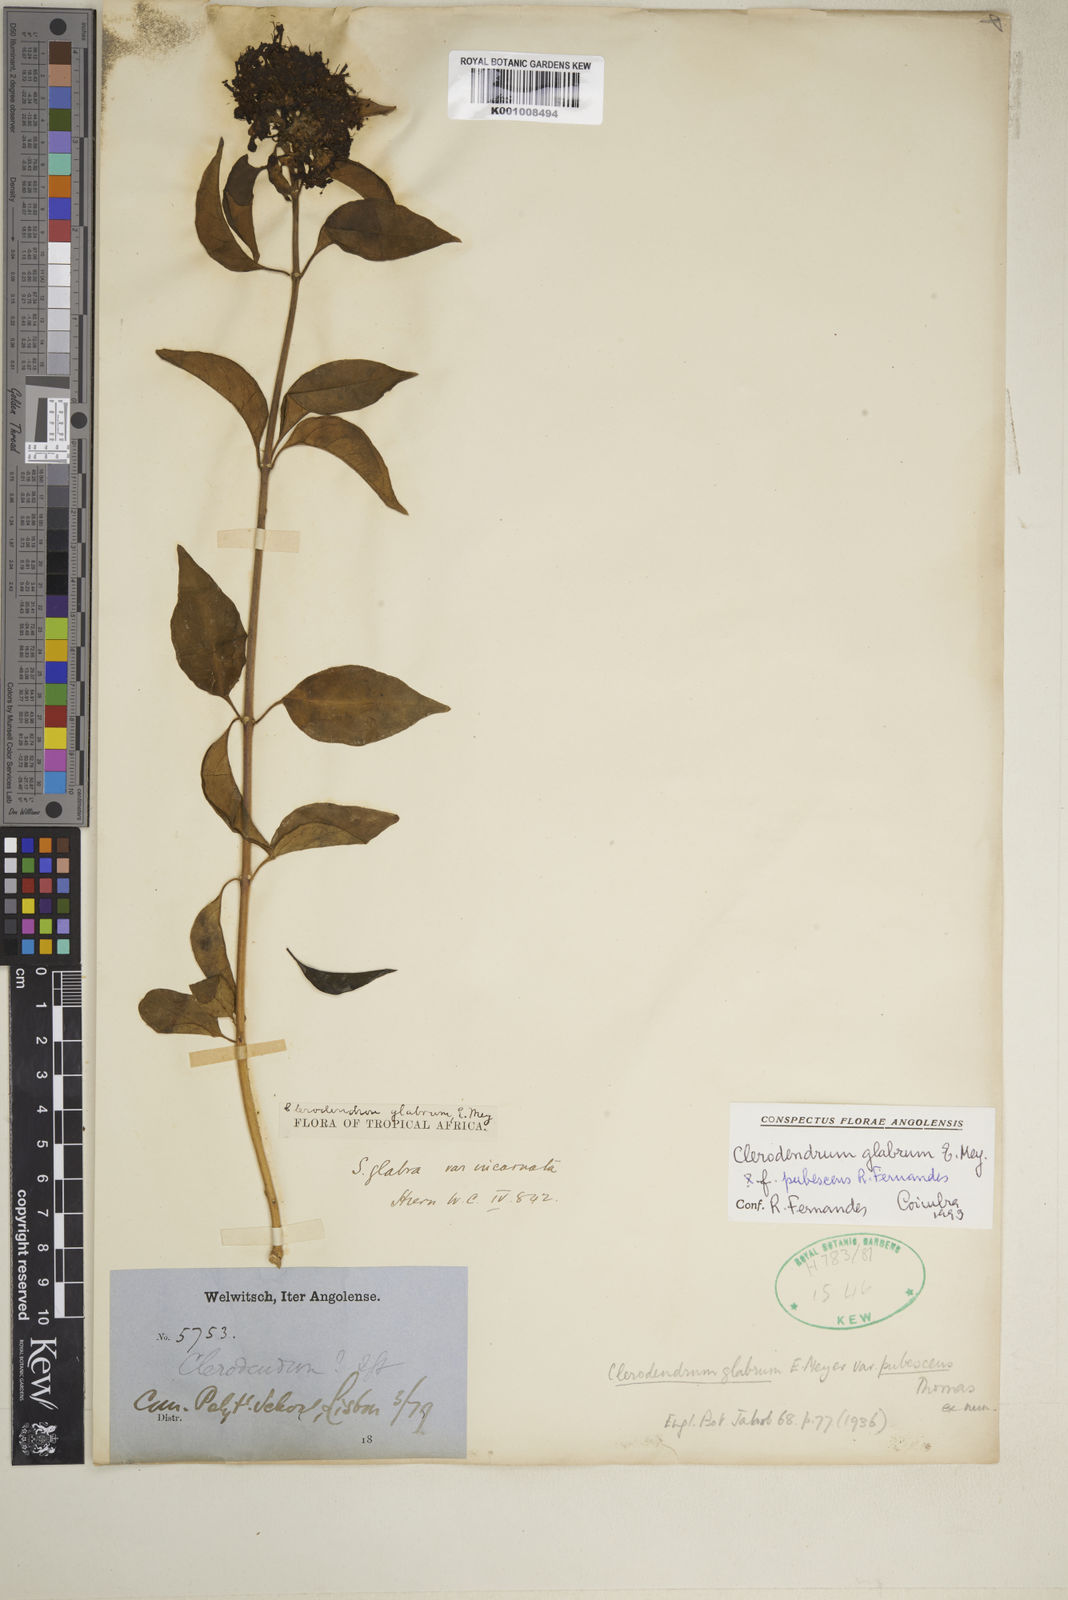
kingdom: Plantae
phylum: Tracheophyta
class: Magnoliopsida
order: Lamiales
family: Lamiaceae
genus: Volkameria
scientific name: Volkameria glabra
